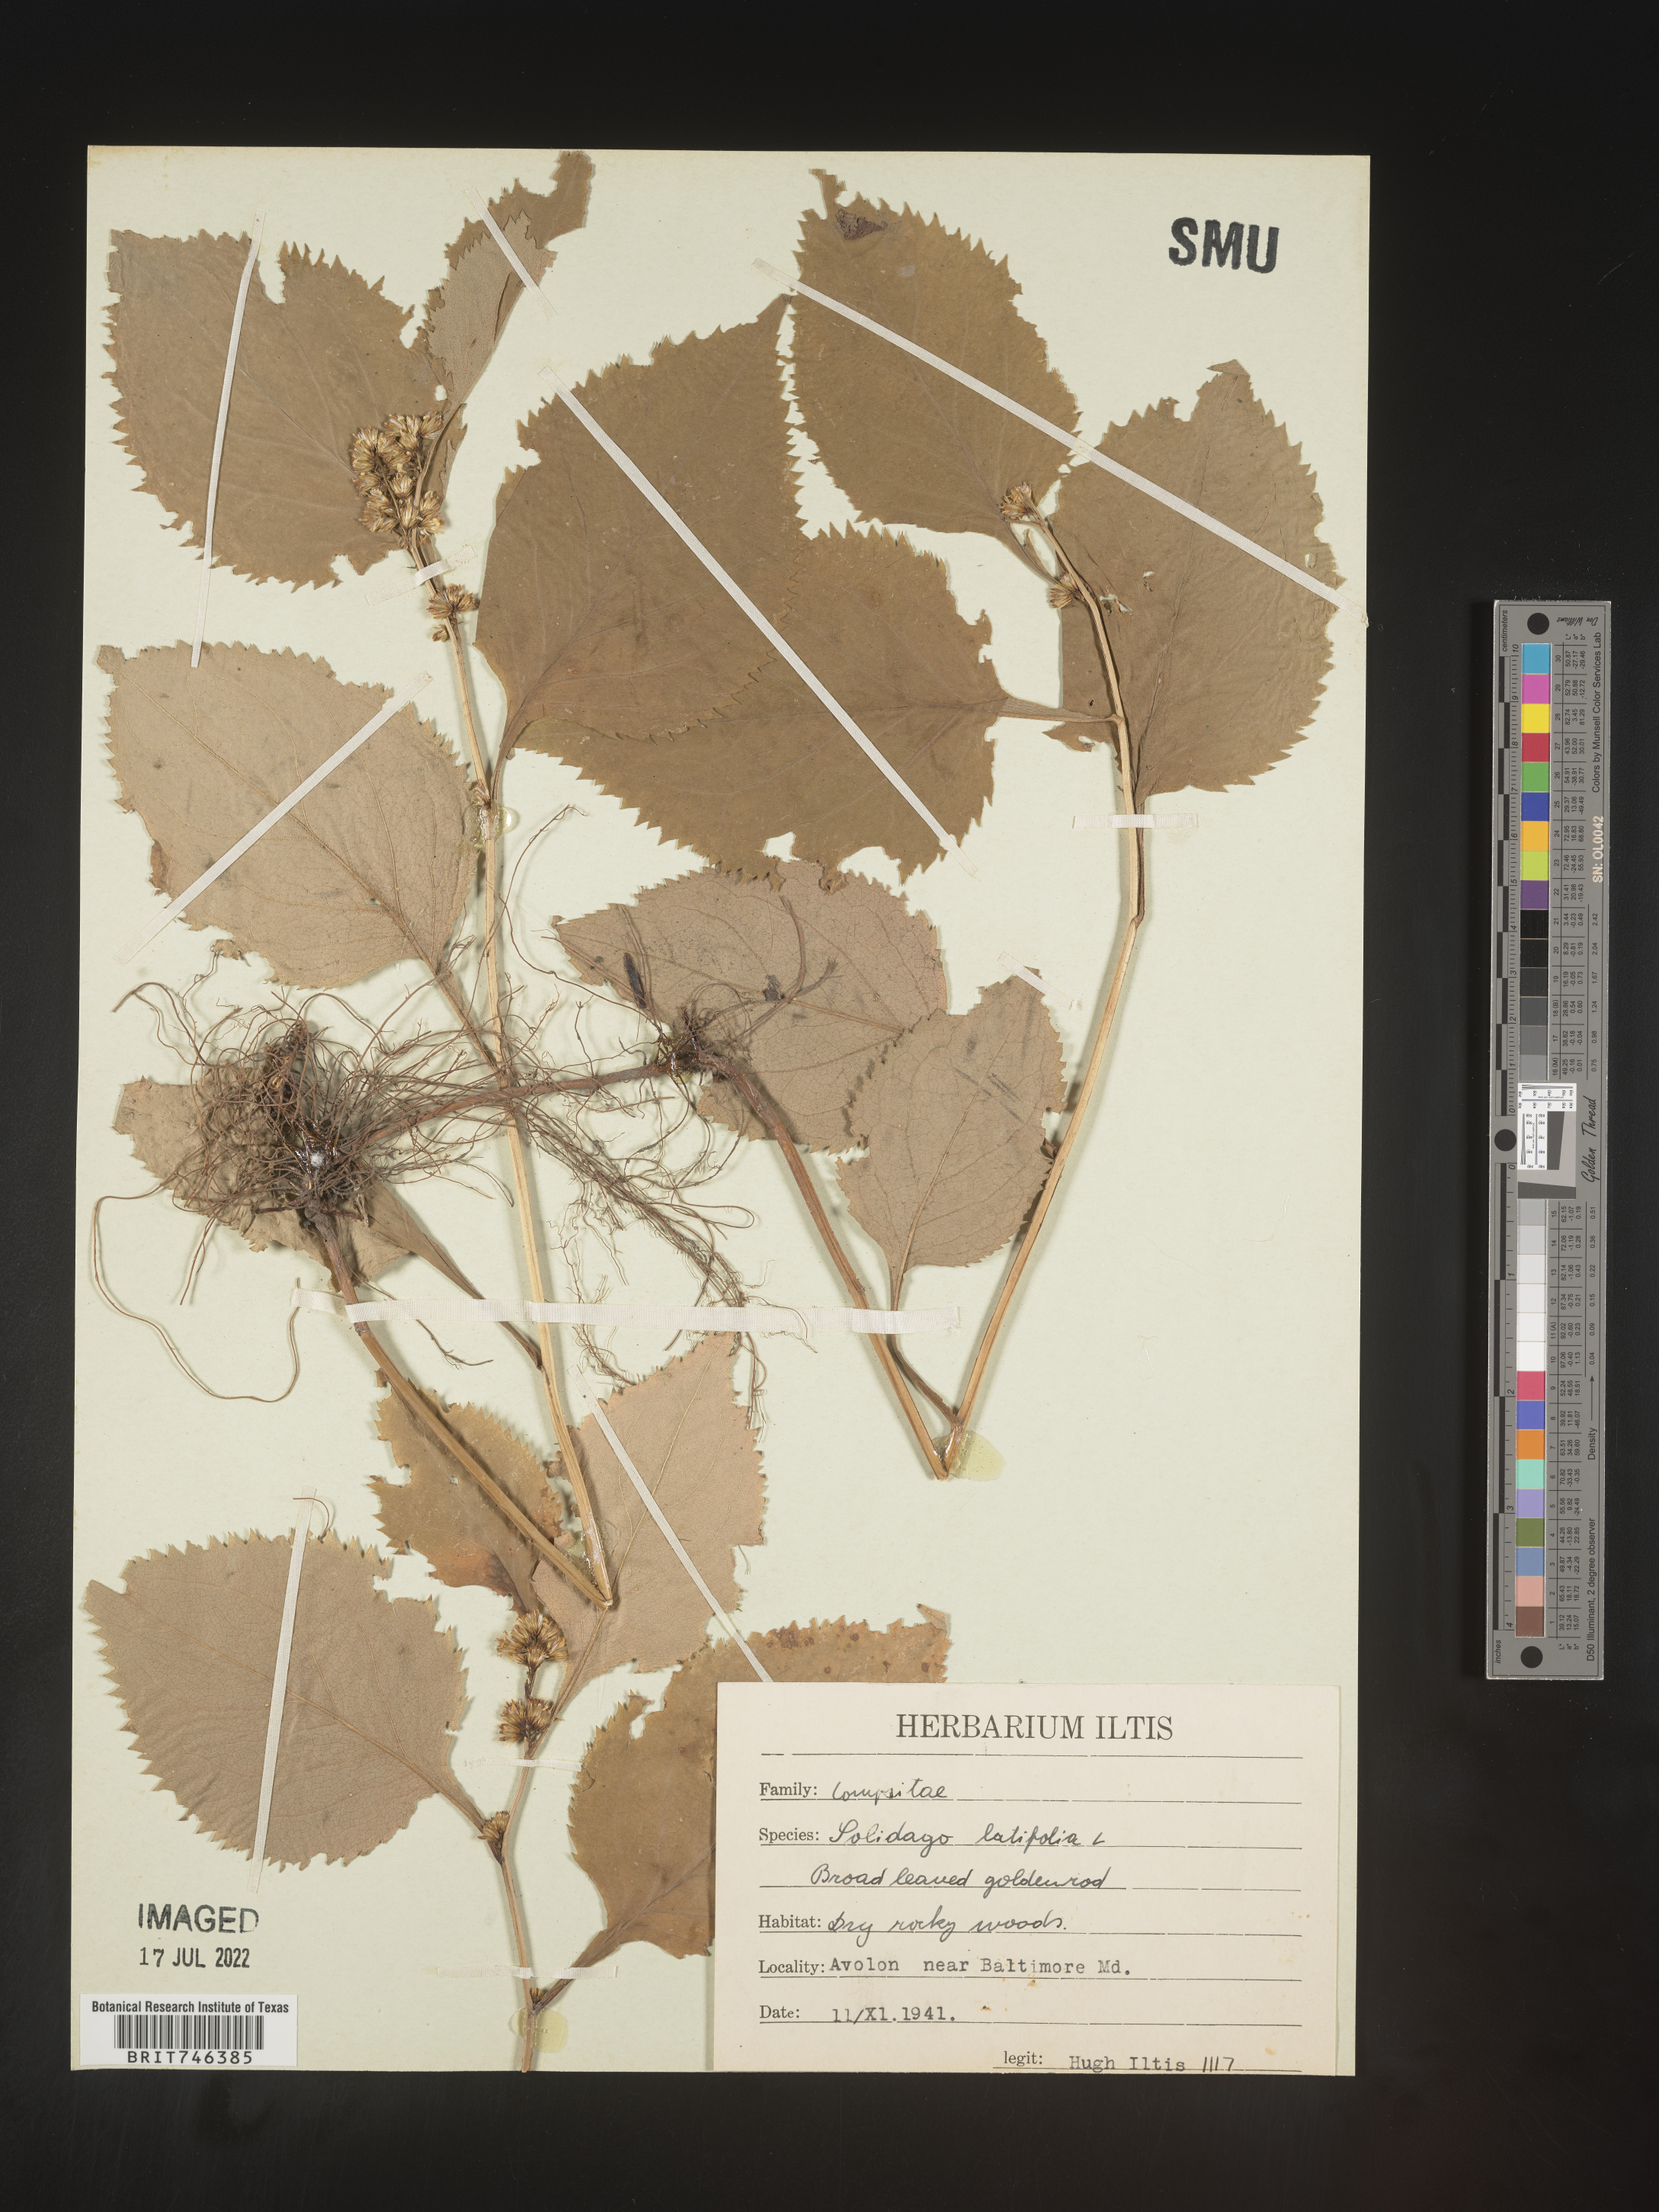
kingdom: Plantae
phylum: Tracheophyta
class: Magnoliopsida
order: Asterales
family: Asteraceae
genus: Solidago
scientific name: Solidago flexicaulis
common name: Zig-zag goldenrod
